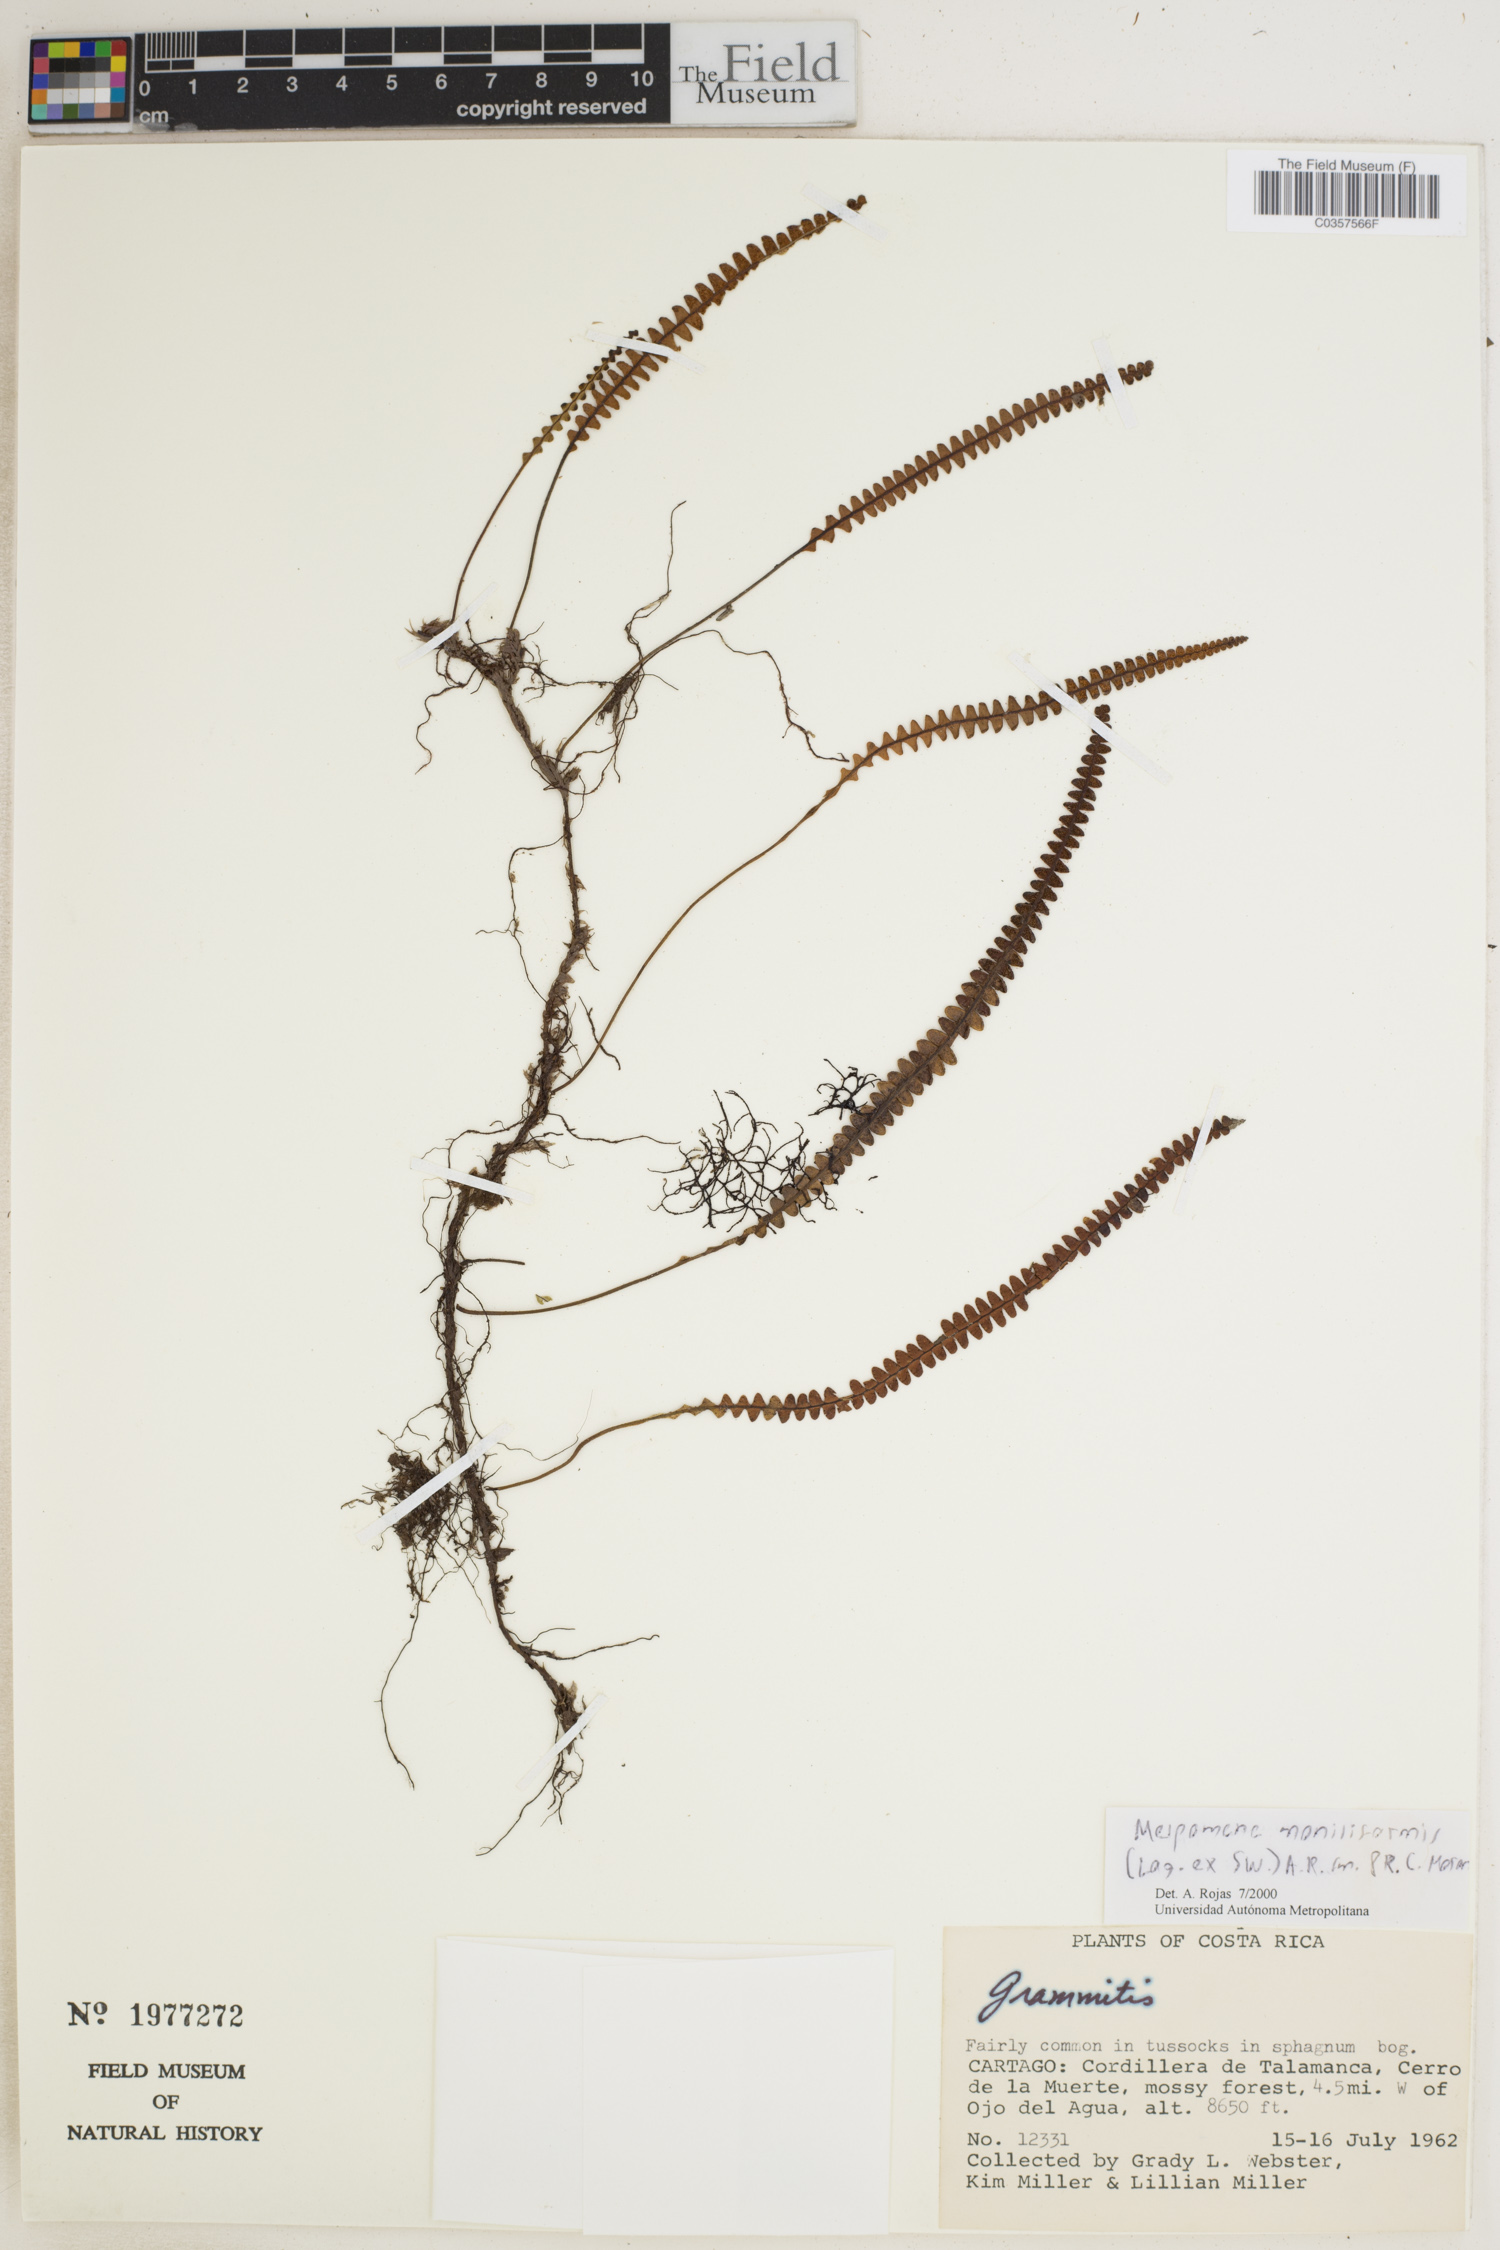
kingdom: Plantae
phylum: Tracheophyta
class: Polypodiopsida
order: Polypodiales
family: Polypodiaceae
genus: Melpomene
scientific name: Melpomene moniliformis
